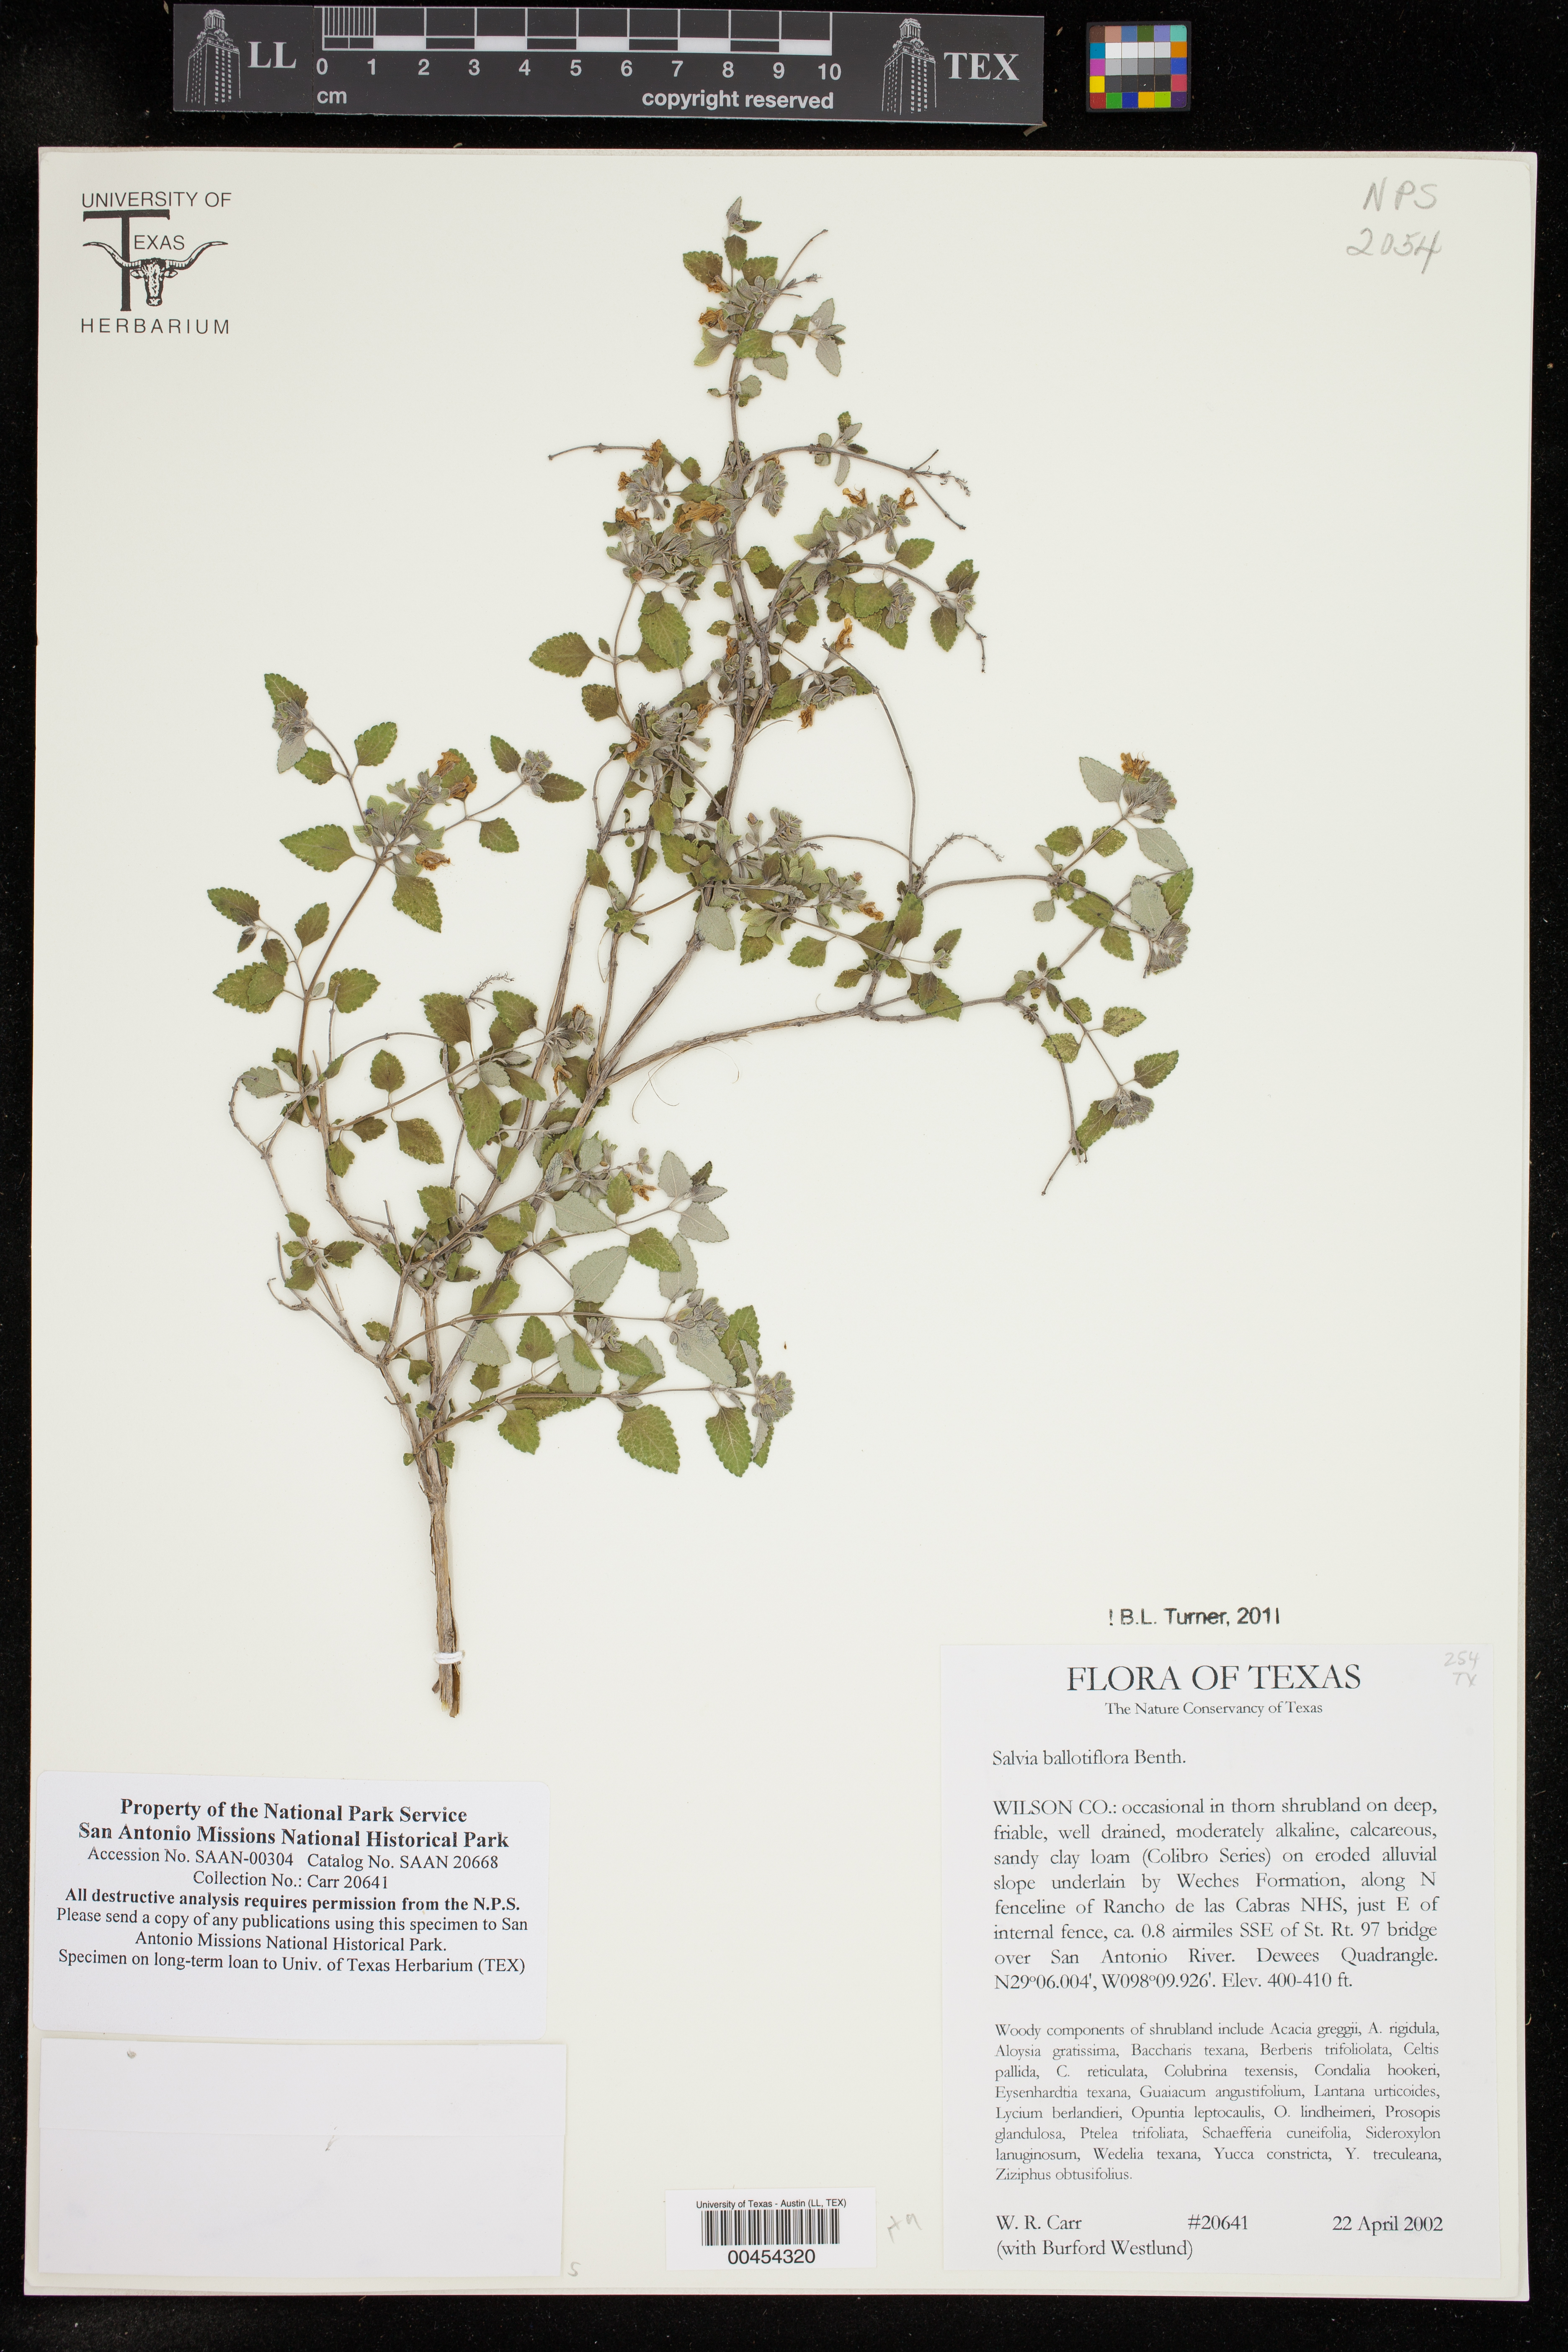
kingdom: Plantae
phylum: Tracheophyta
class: Magnoliopsida
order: Lamiales
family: Lamiaceae
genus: Salvia
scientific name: Salvia ballotiflora
